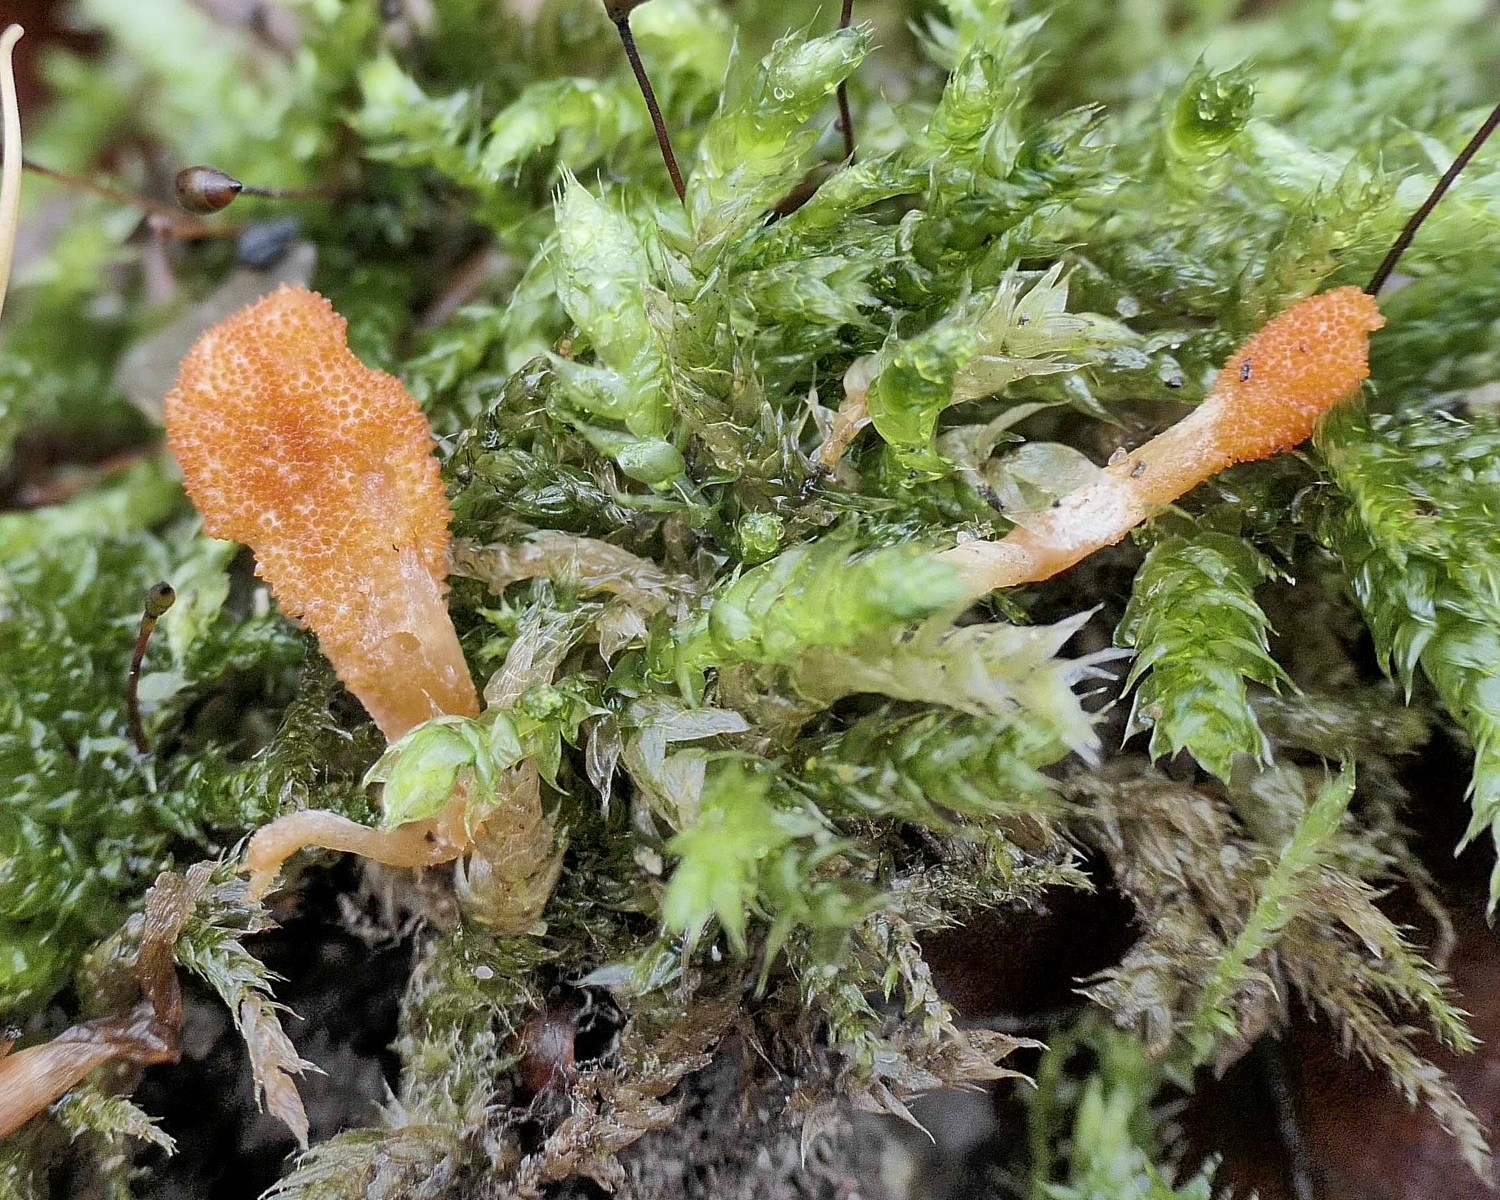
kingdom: Fungi
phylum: Ascomycota
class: Sordariomycetes
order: Hypocreales
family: Cordycipitaceae
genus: Cordyceps
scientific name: Cordyceps militaris
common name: puppe-snyltekølle
